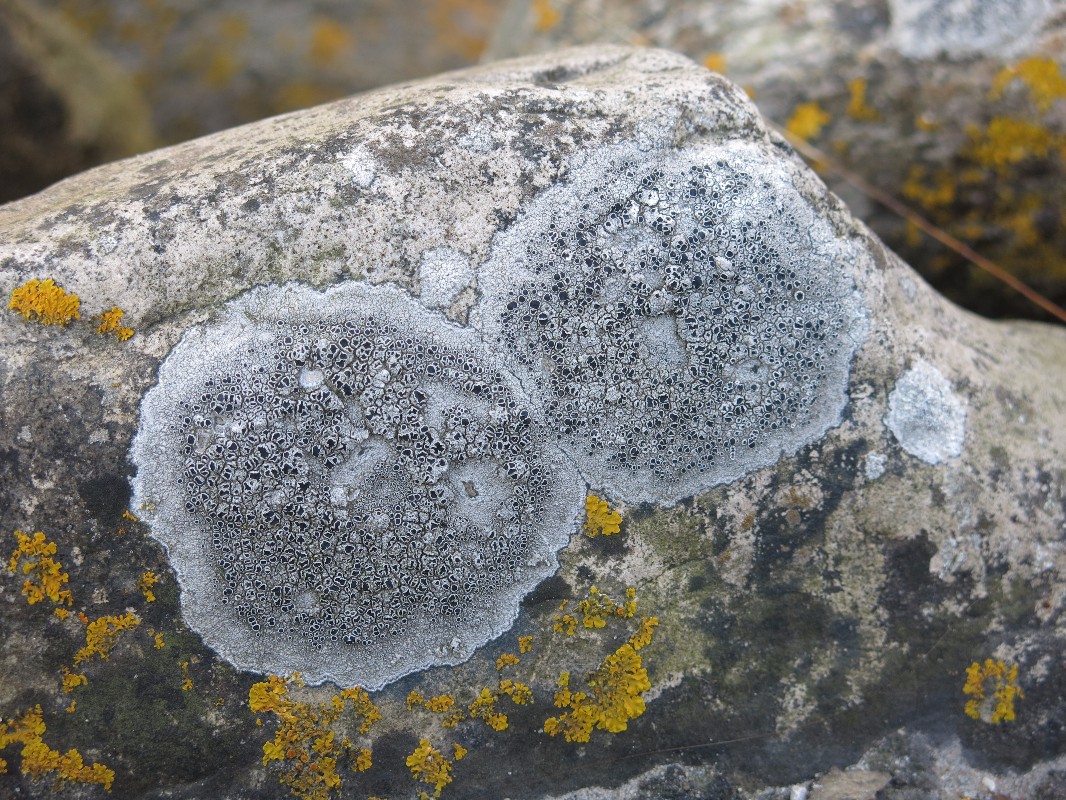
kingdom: Fungi
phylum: Ascomycota
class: Lecanoromycetes
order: Lecanorales
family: Tephromelataceae
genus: Tephromela
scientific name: Tephromela atra
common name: sortfrugtet kantskivelav
